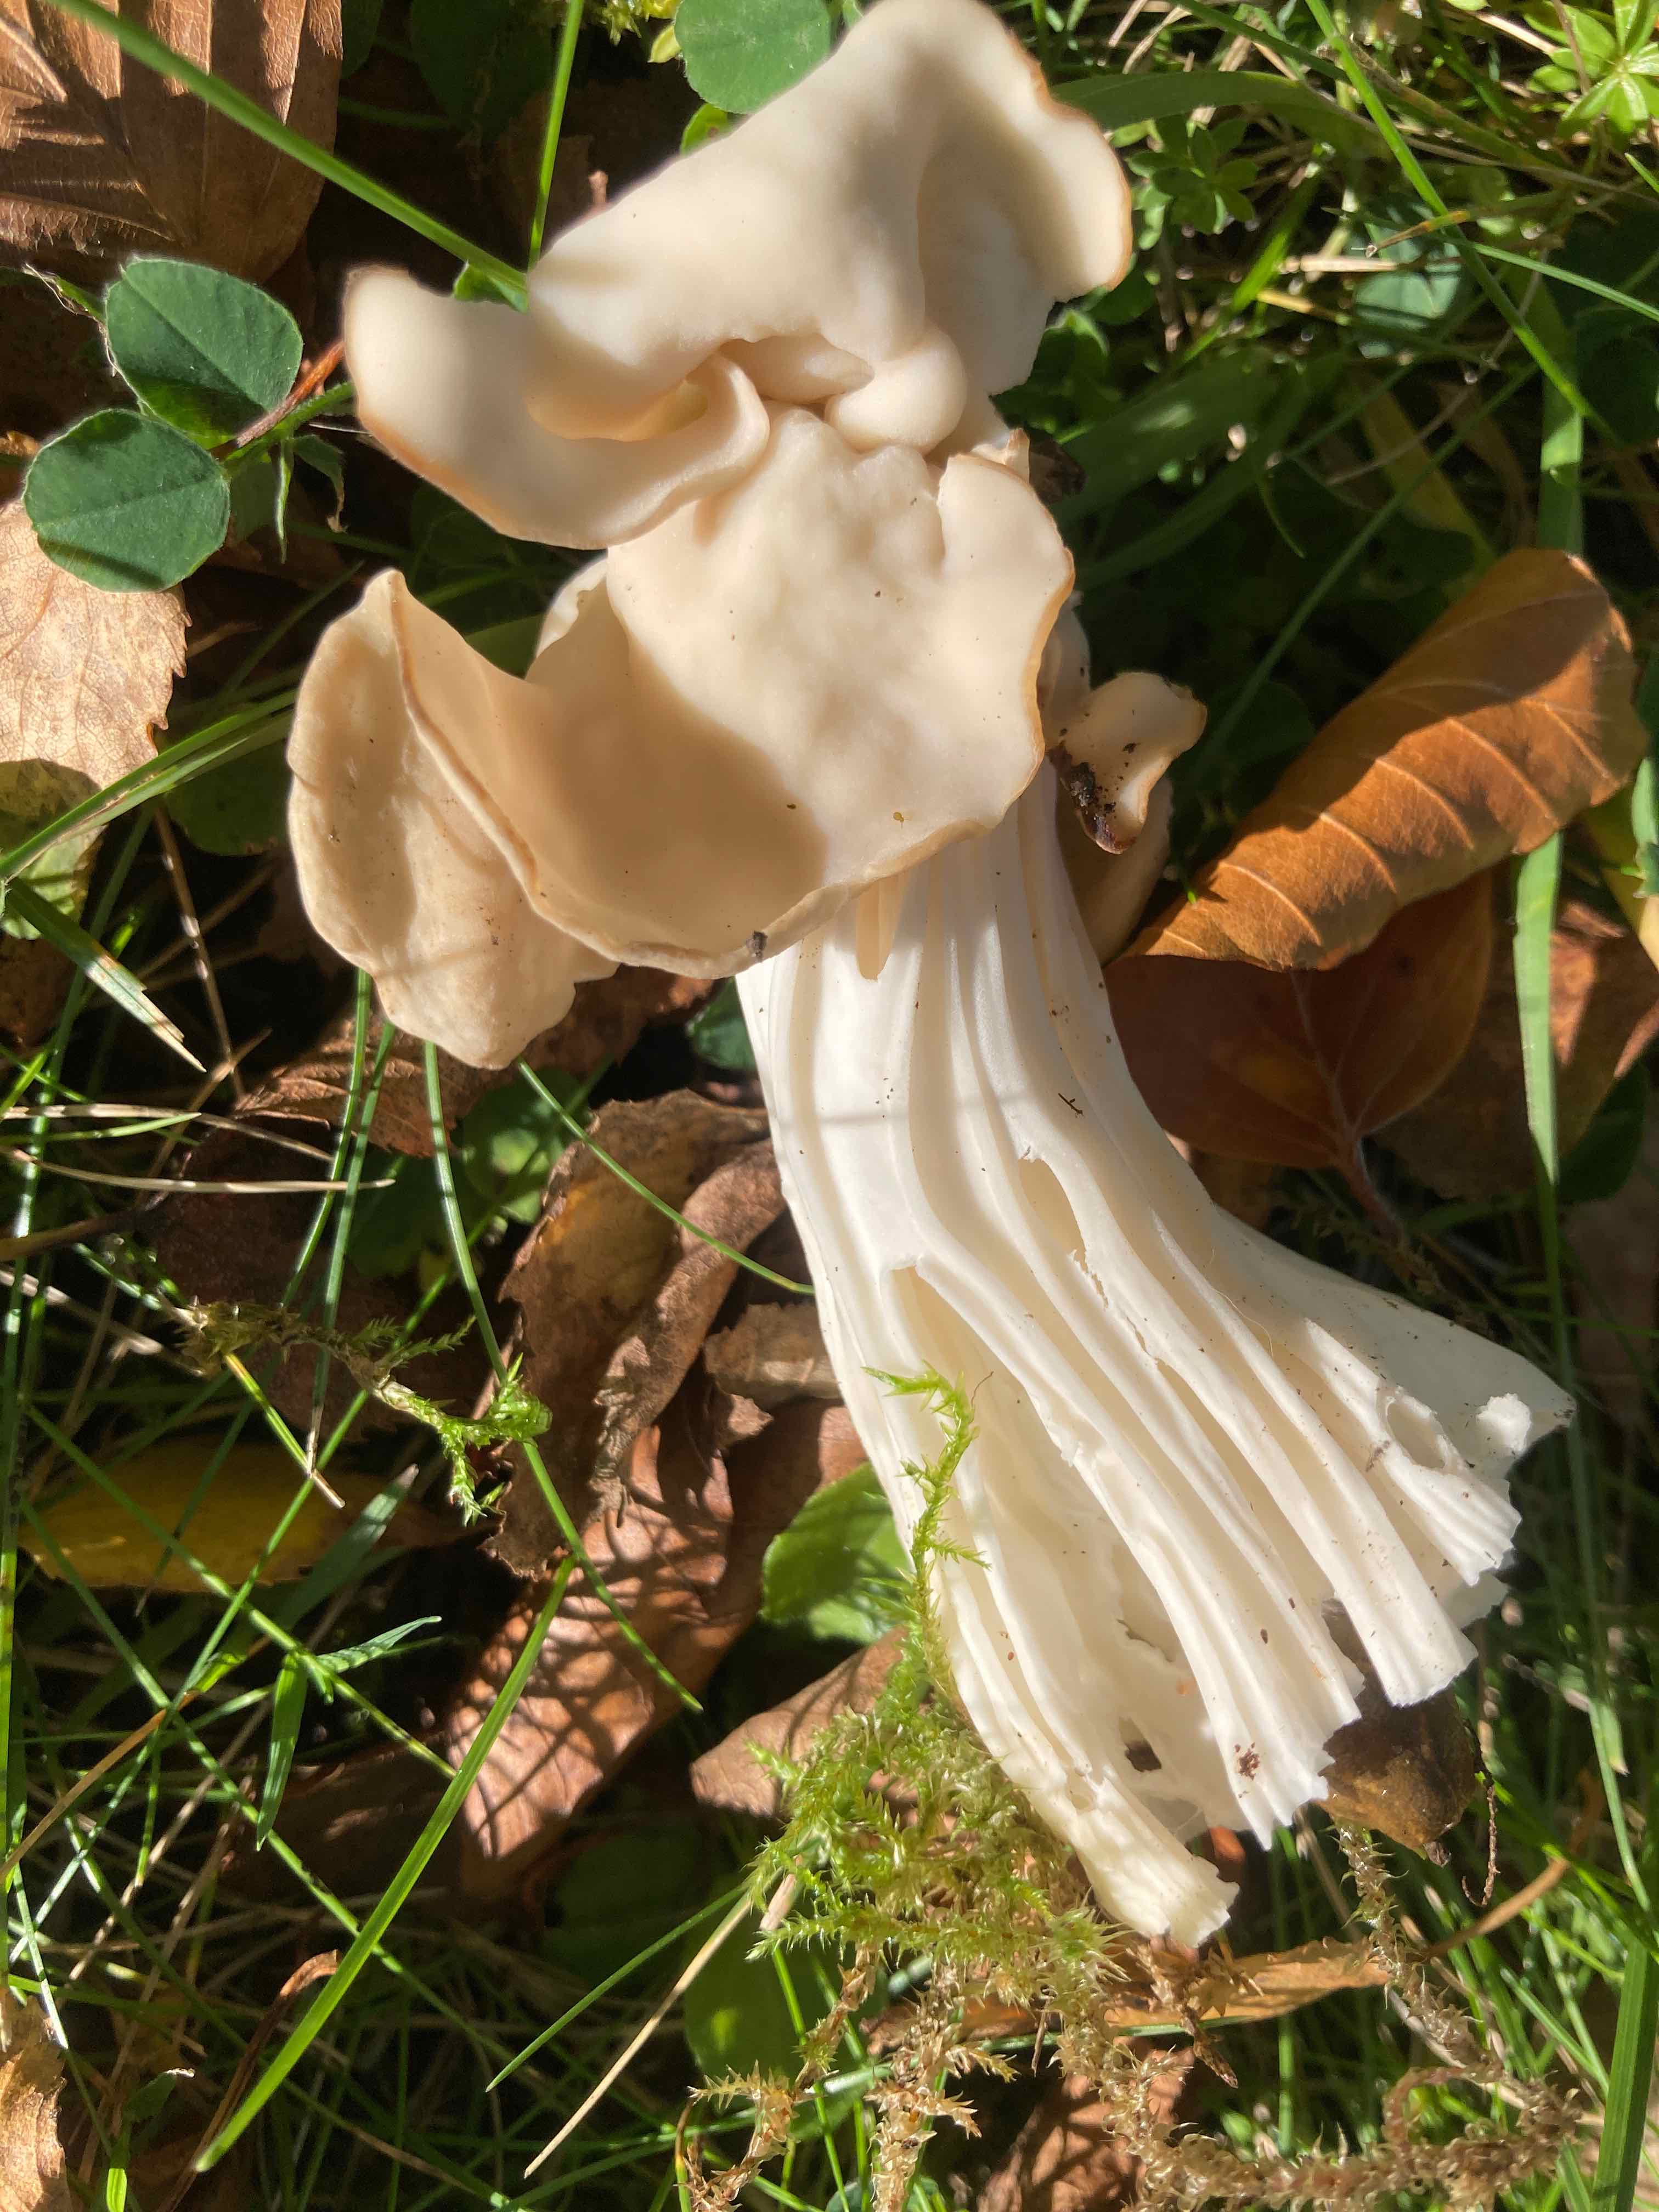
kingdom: Fungi
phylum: Ascomycota
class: Pezizomycetes
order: Pezizales
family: Helvellaceae
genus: Helvella
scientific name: Helvella crispa
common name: kruset foldhat
